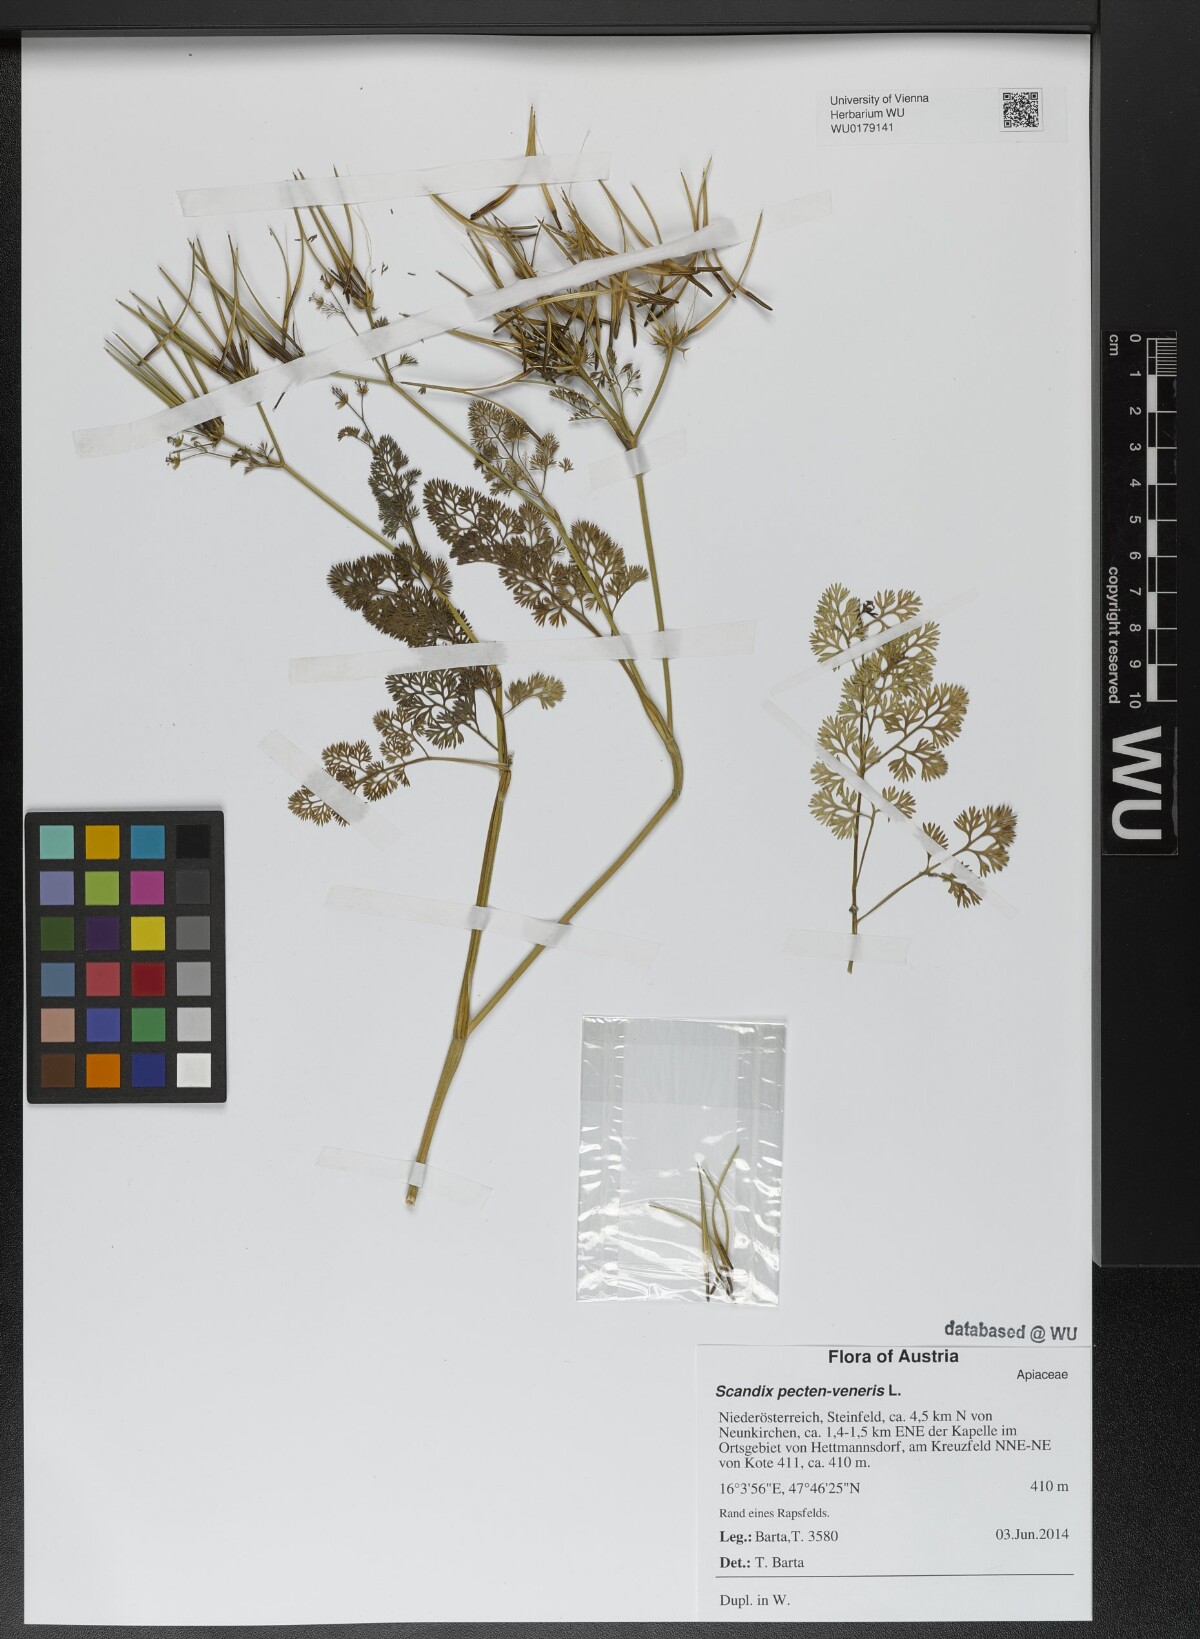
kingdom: Plantae
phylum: Tracheophyta
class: Magnoliopsida
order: Apiales
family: Apiaceae
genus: Scandix
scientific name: Scandix pecten-veneris
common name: Shepherd's-needle
